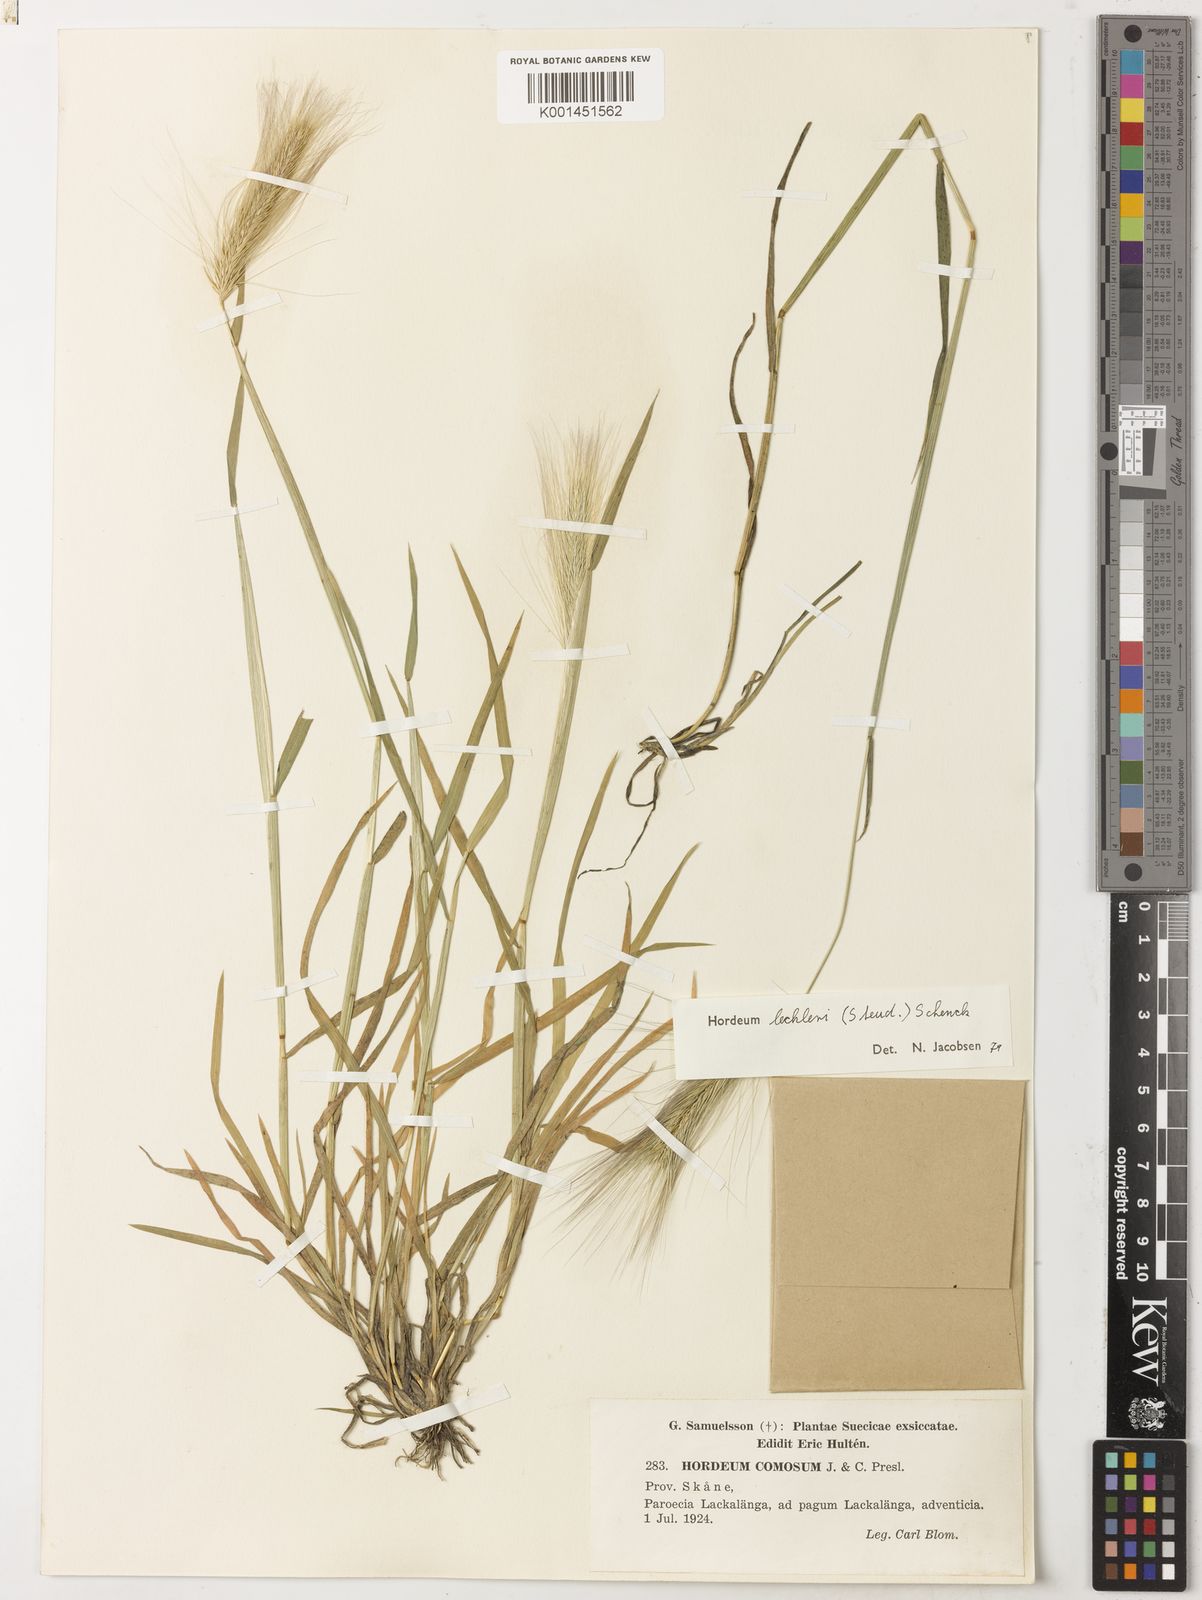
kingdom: Plantae
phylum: Tracheophyta
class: Liliopsida
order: Poales
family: Poaceae
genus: Hordeum
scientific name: Hordeum lechleri
